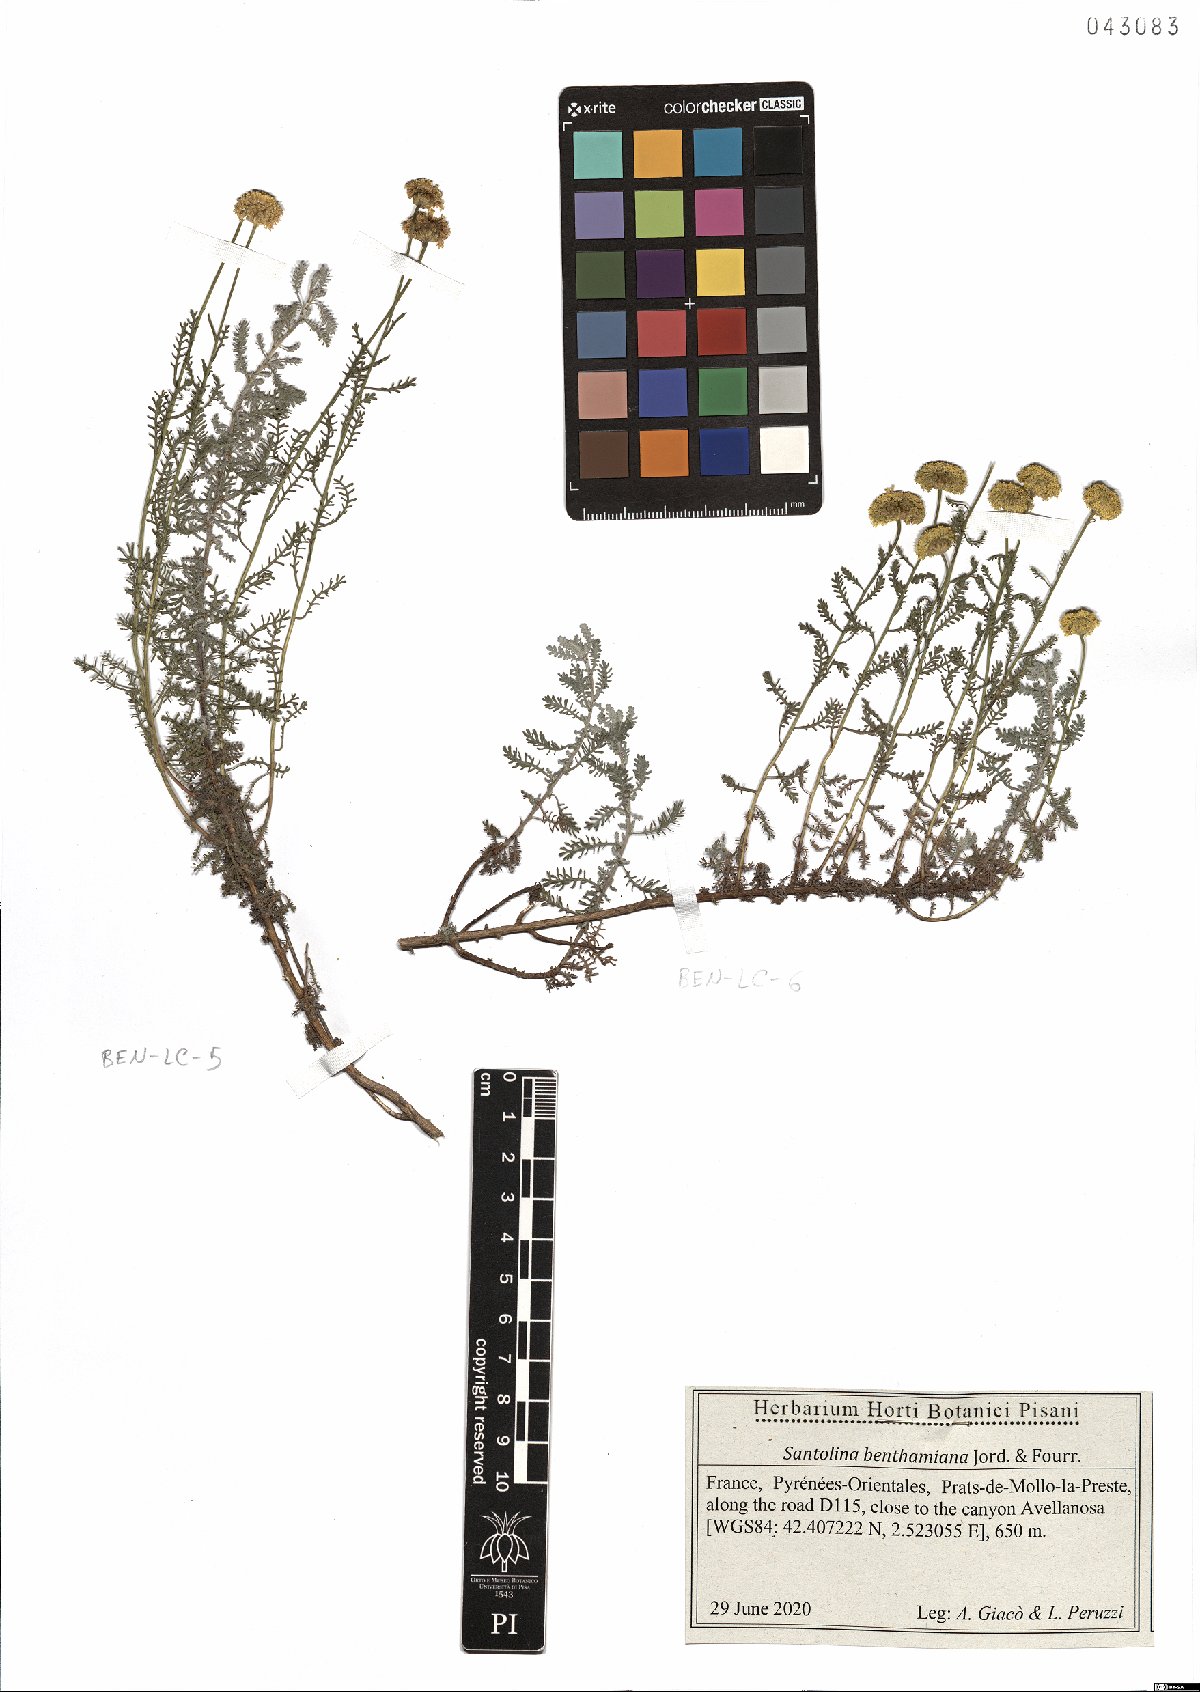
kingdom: Plantae
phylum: Tracheophyta
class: Magnoliopsida
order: Asterales
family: Asteraceae
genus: Santolina
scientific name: Santolina benthamiana
